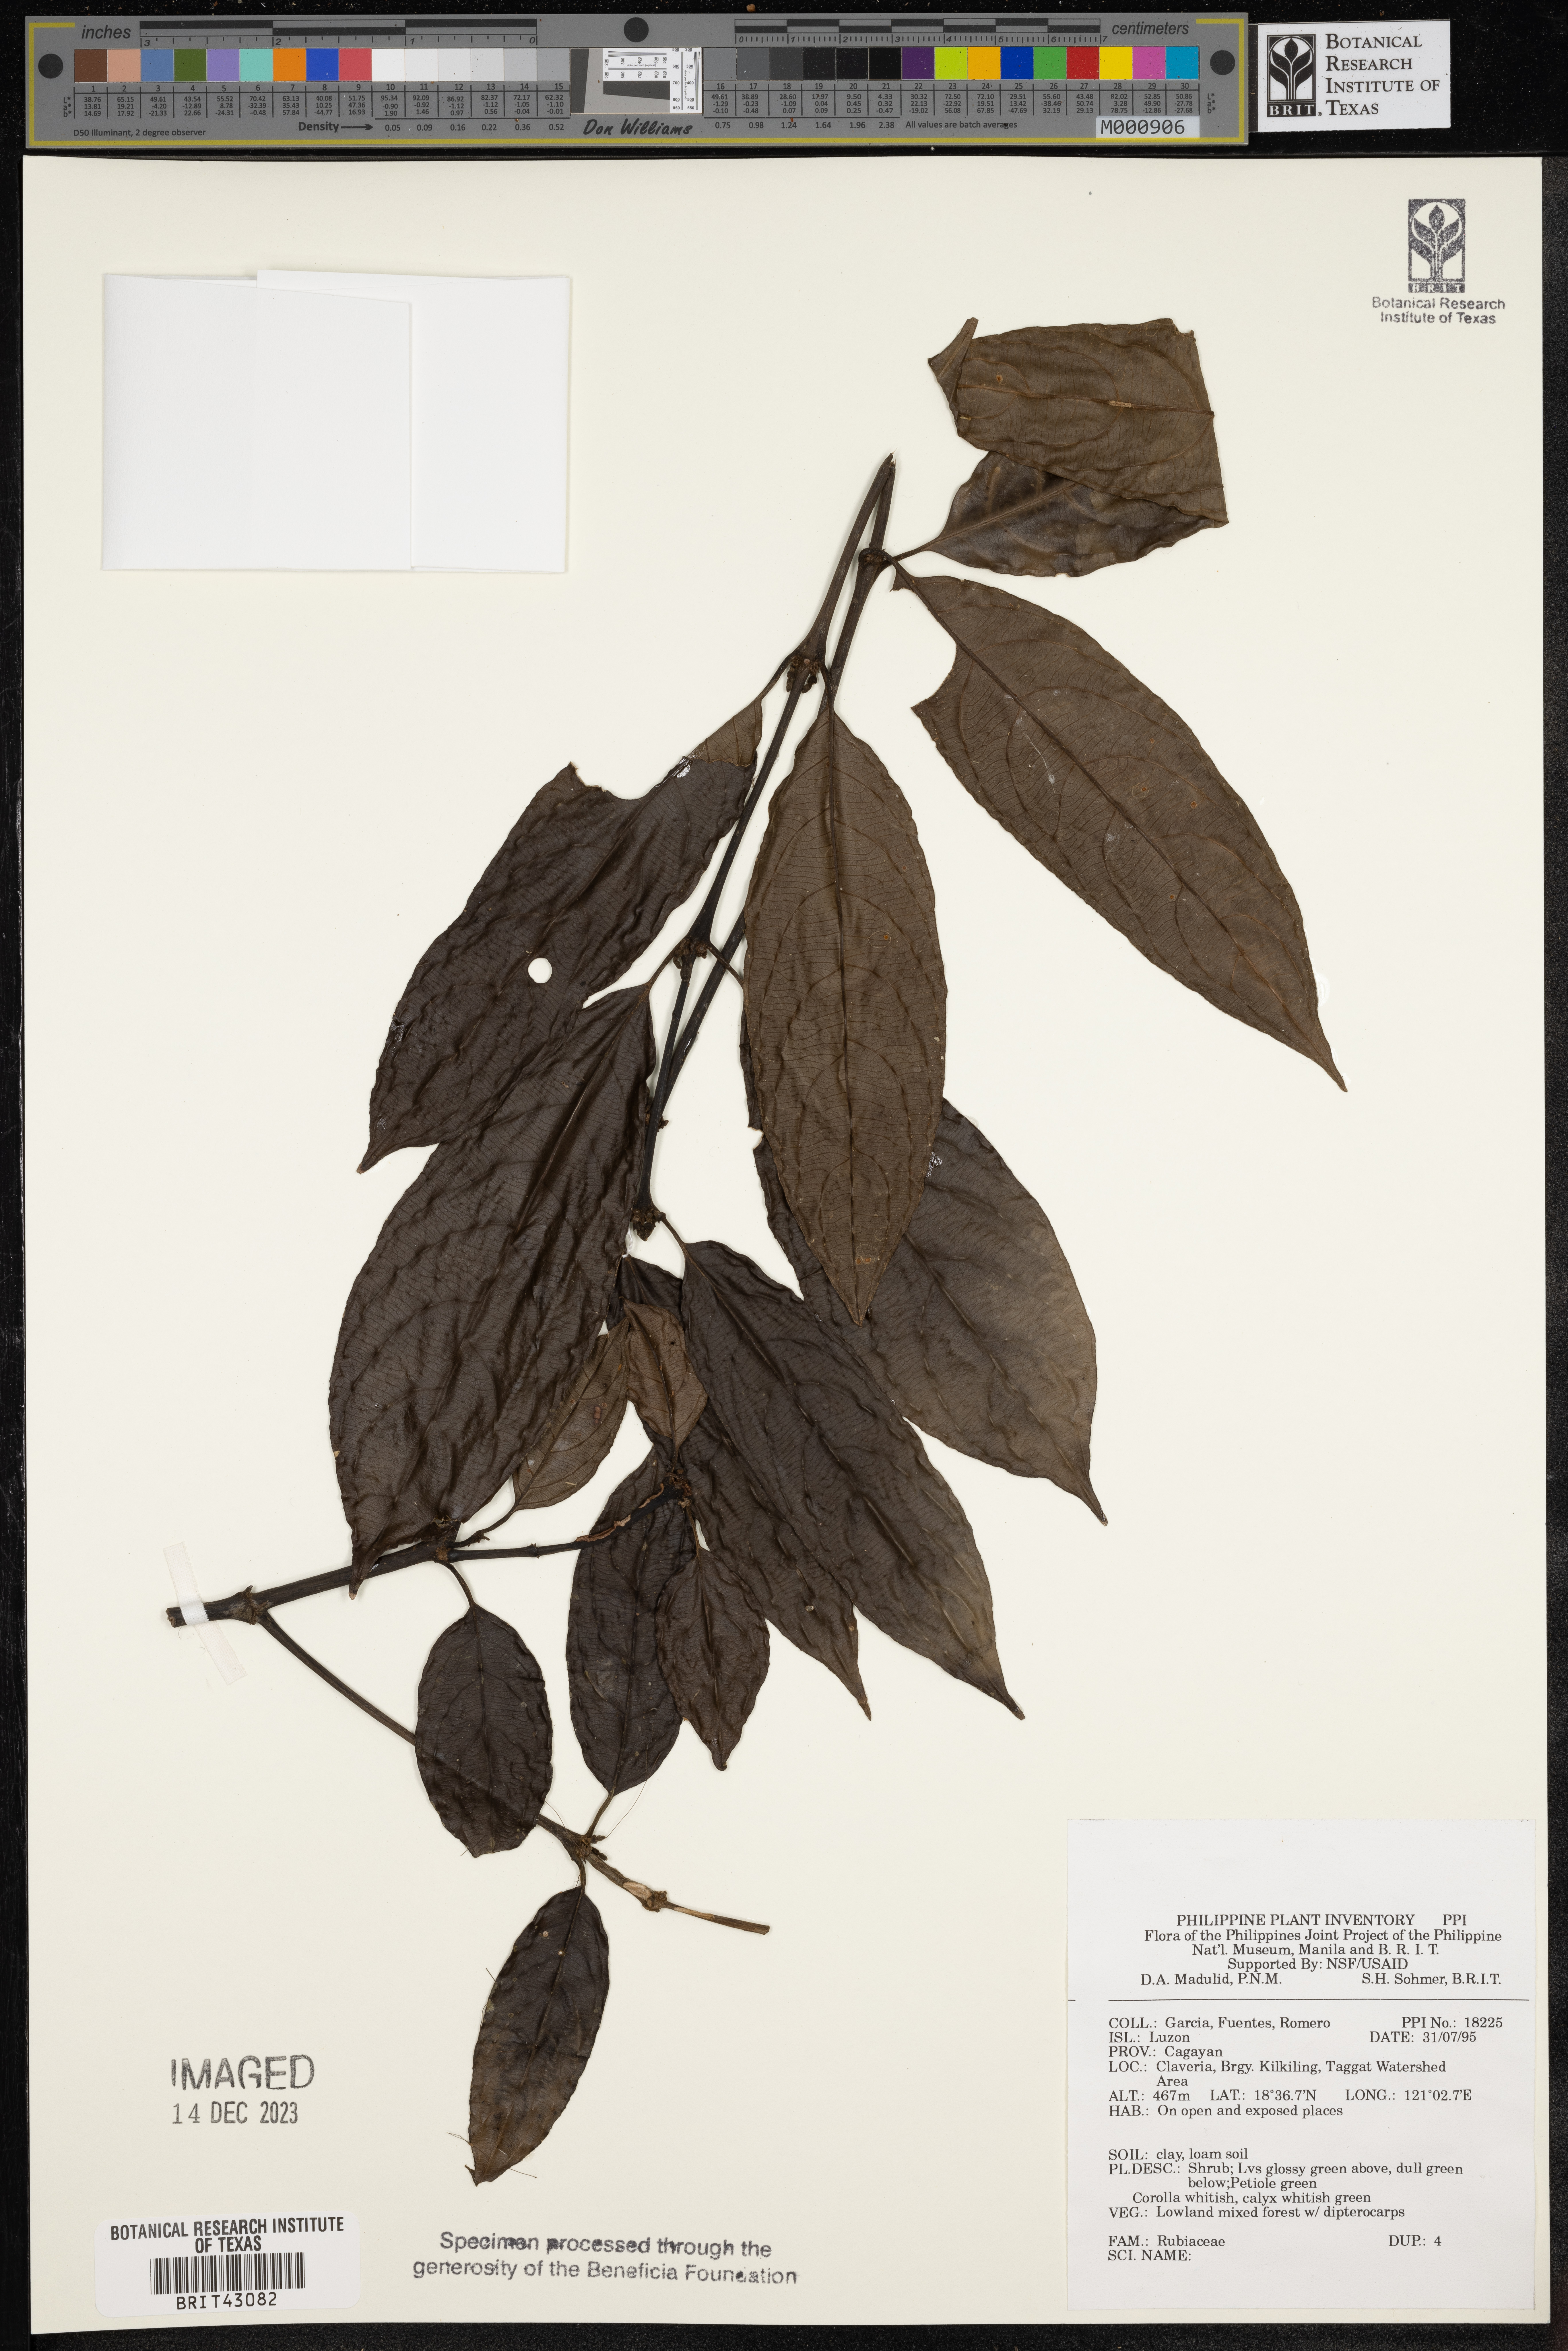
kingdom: Plantae
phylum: Tracheophyta
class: Magnoliopsida
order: Gentianales
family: Rubiaceae
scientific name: Rubiaceae
